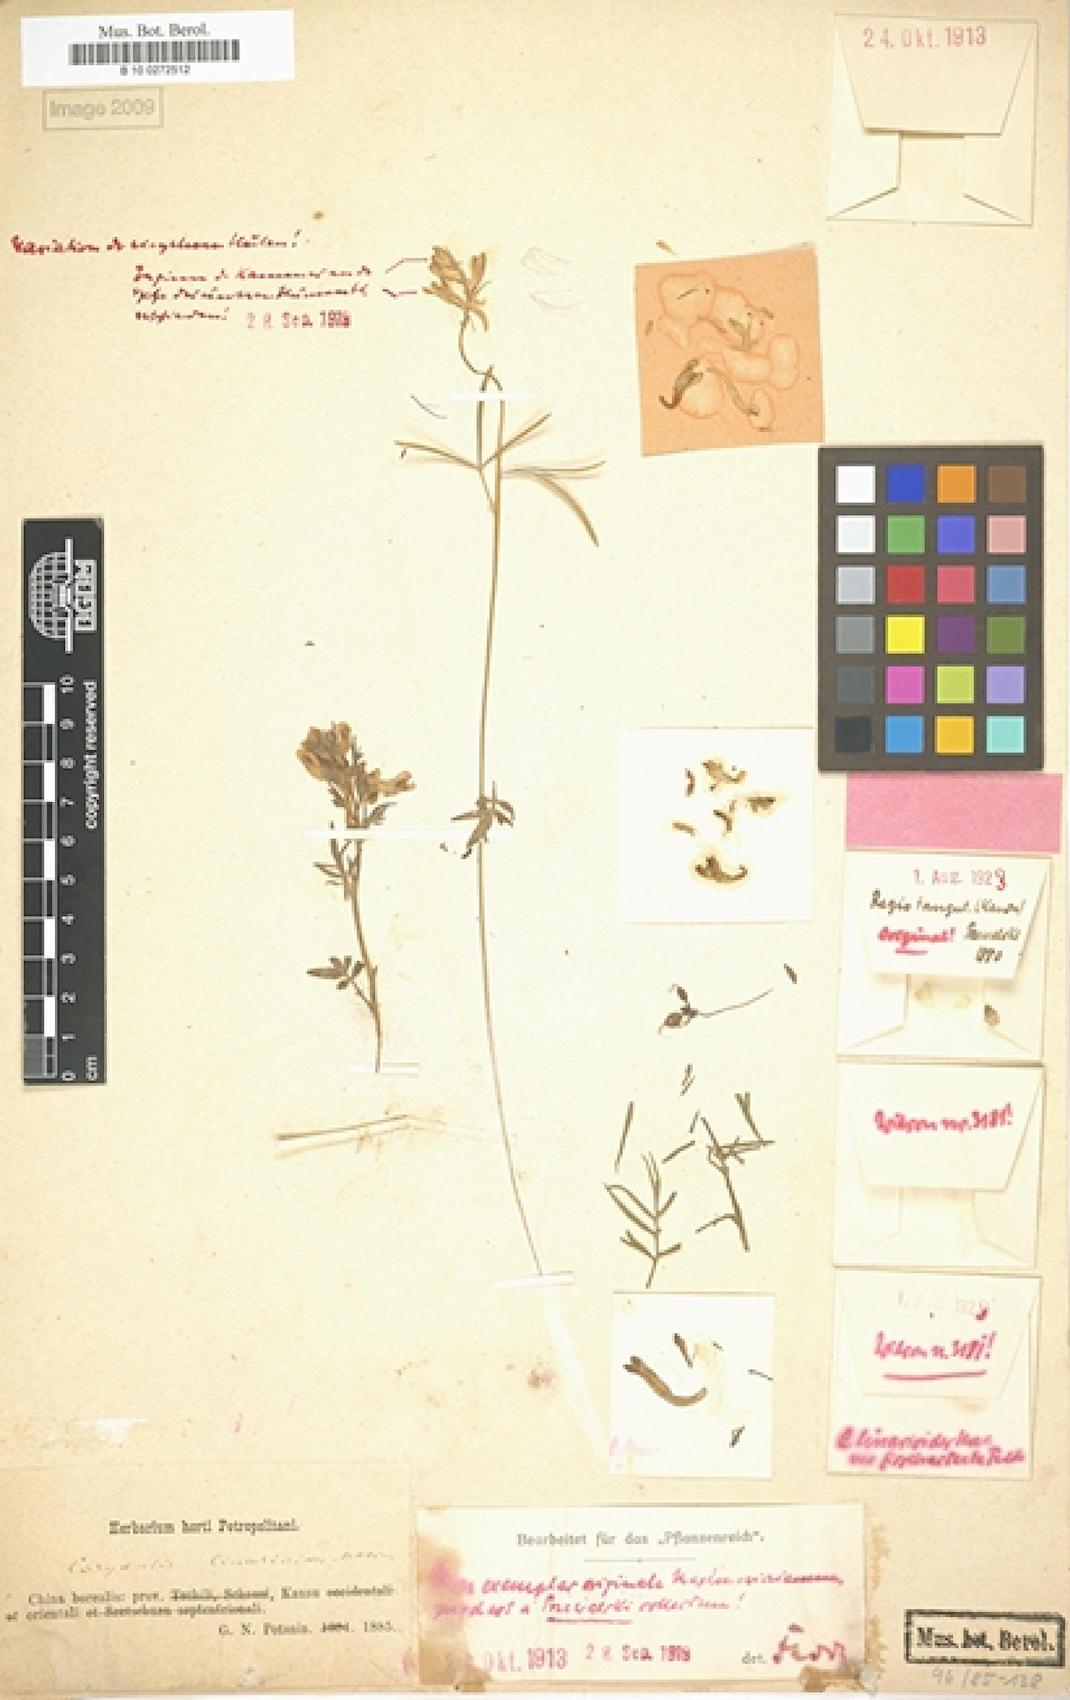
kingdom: Plantae
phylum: Tracheophyta
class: Magnoliopsida
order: Ranunculales
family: Papaveraceae
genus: Corydalis
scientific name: Corydalis linarioides
